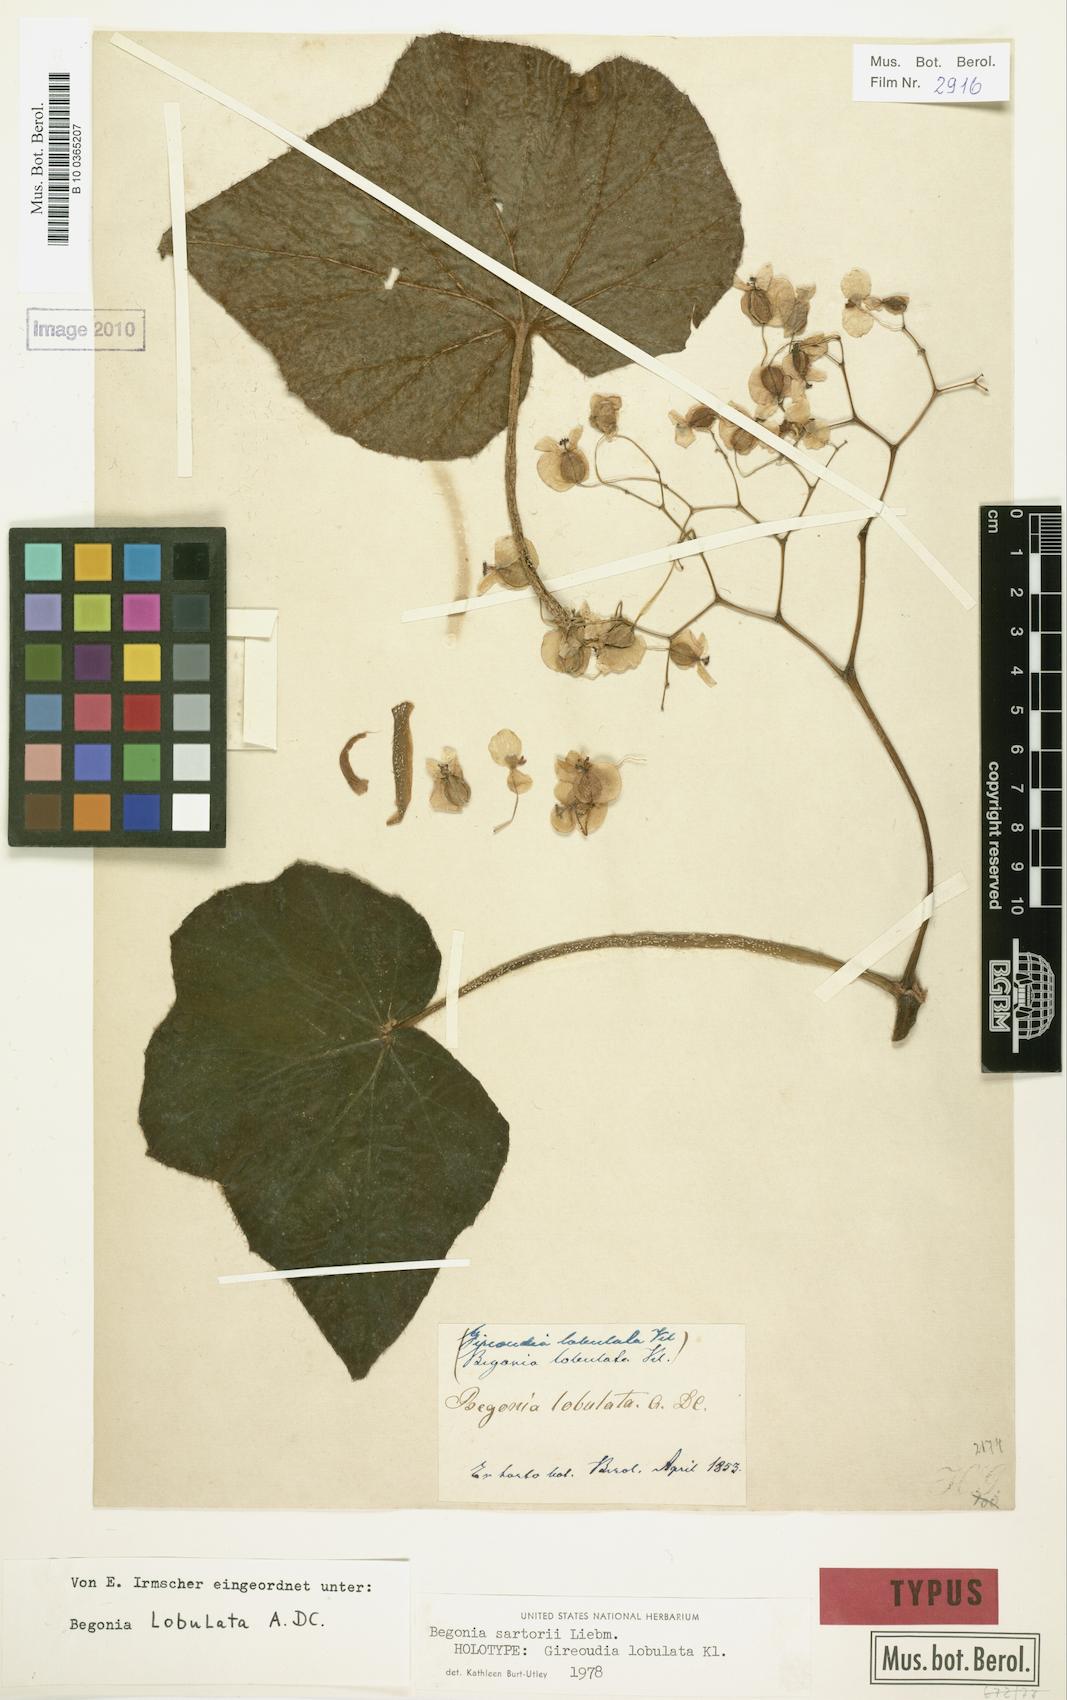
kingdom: Plantae
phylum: Tracheophyta
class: Magnoliopsida
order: Cucurbitales
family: Begoniaceae
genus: Begonia
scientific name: Begonia sartorii
